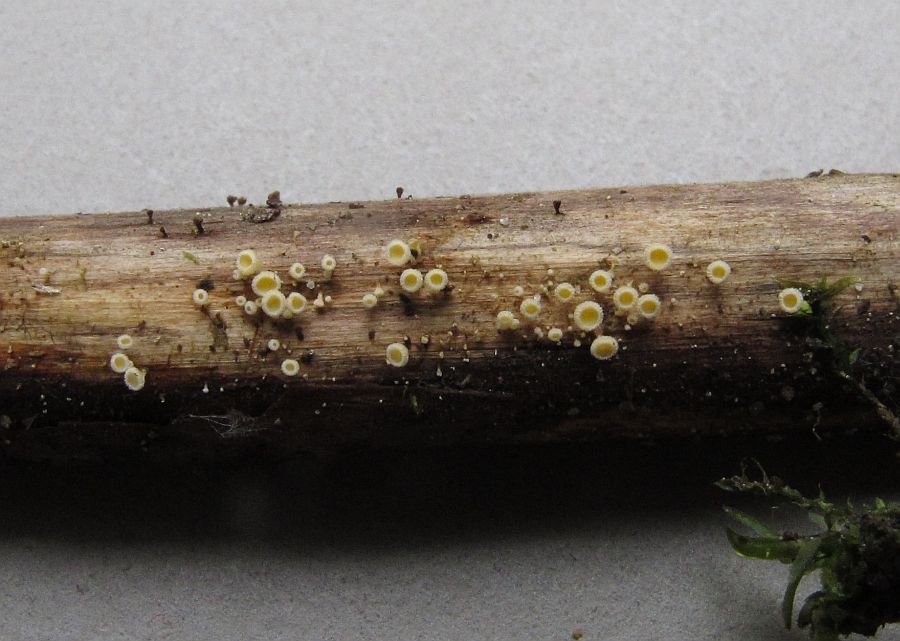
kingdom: Fungi
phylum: Ascomycota
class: Leotiomycetes
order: Helotiales
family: Lachnaceae
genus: Capitotricha
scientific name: Capitotricha rubi
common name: orangegul frynseskive
